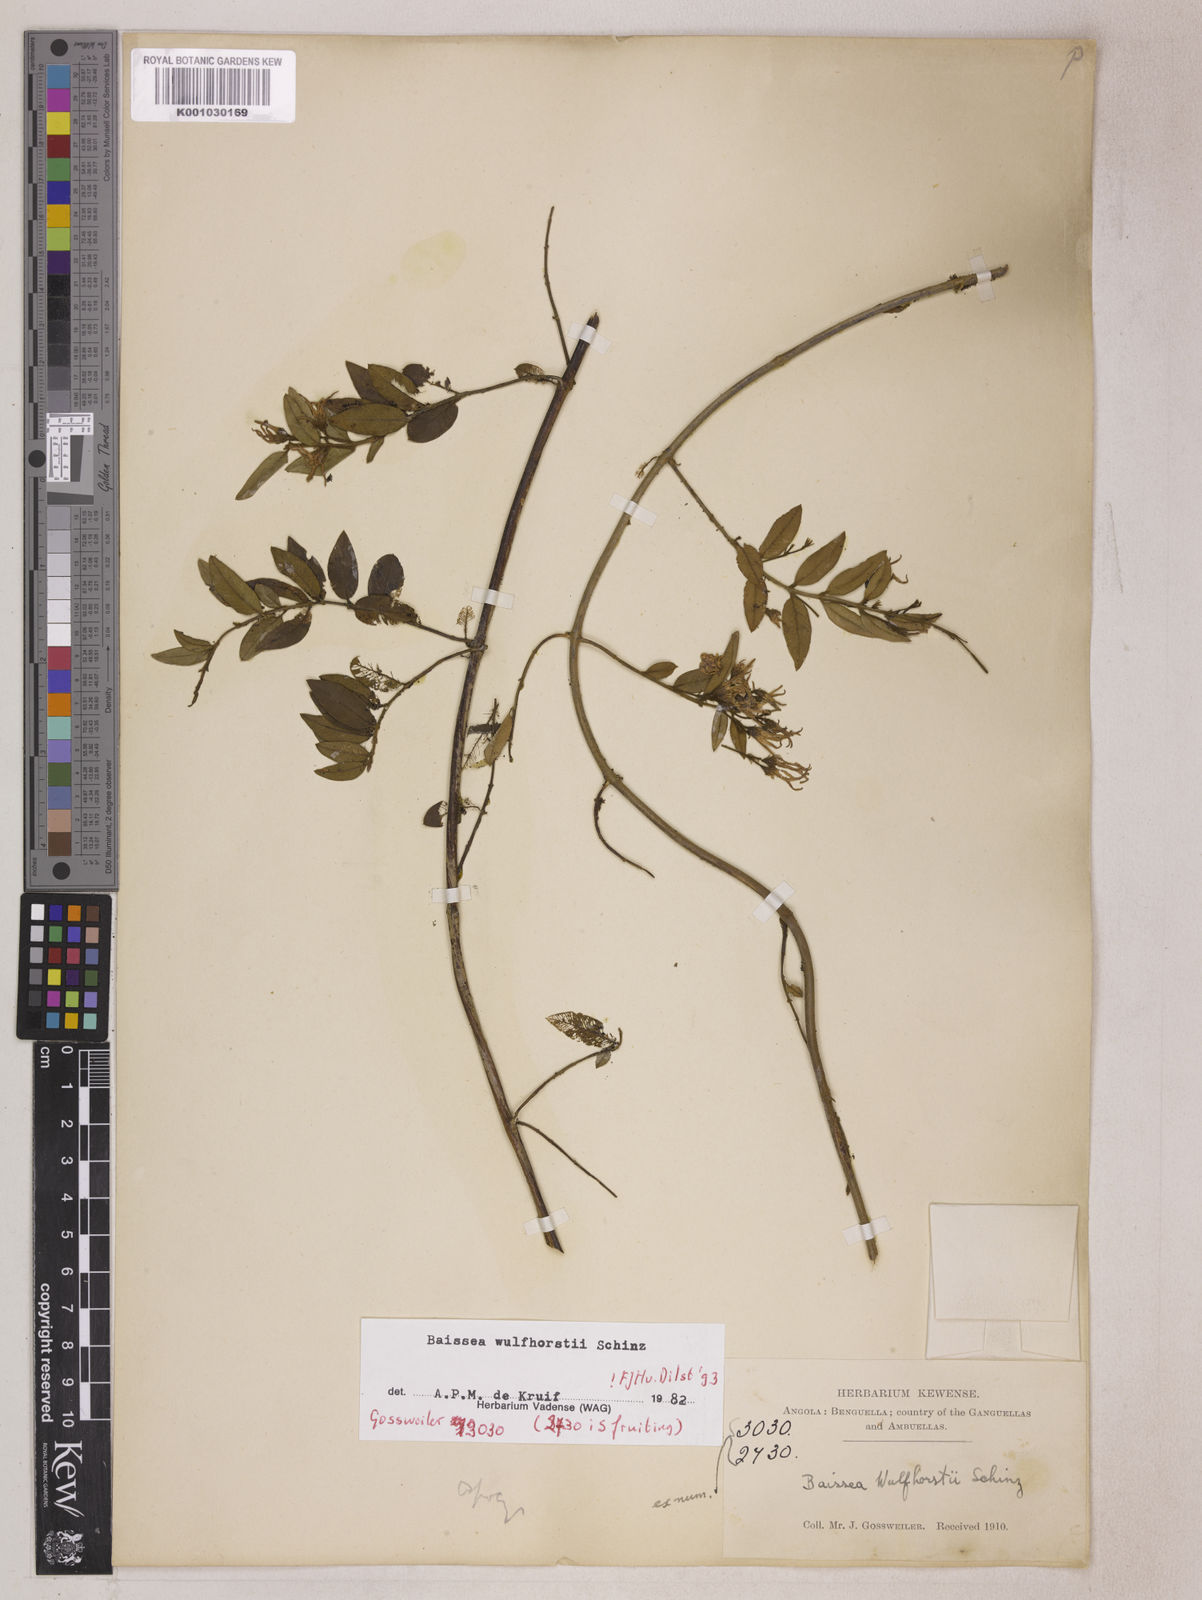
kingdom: Plantae
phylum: Tracheophyta
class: Magnoliopsida
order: Gentianales
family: Apocynaceae
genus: Baissea
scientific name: Baissea wulfhorstii
